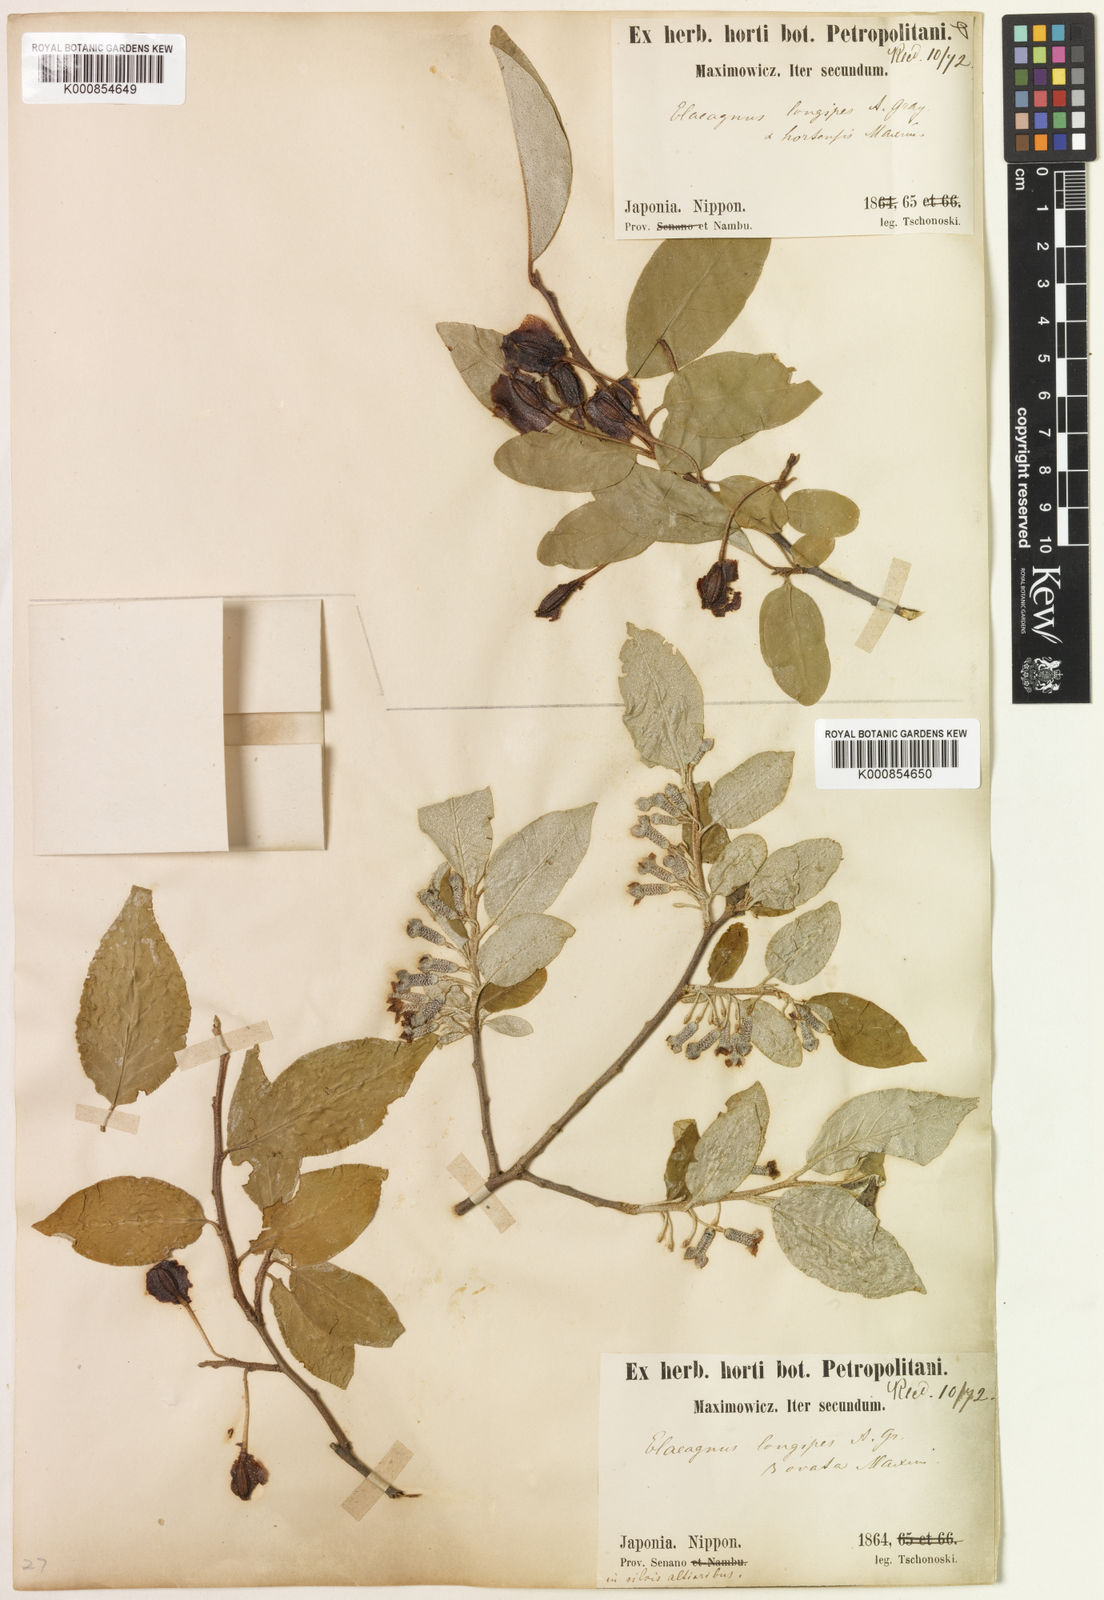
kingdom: Plantae
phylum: Tracheophyta
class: Magnoliopsida
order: Rosales
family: Elaeagnaceae
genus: Elaeagnus
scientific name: Elaeagnus multiflora
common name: Cherry elaeagnus
